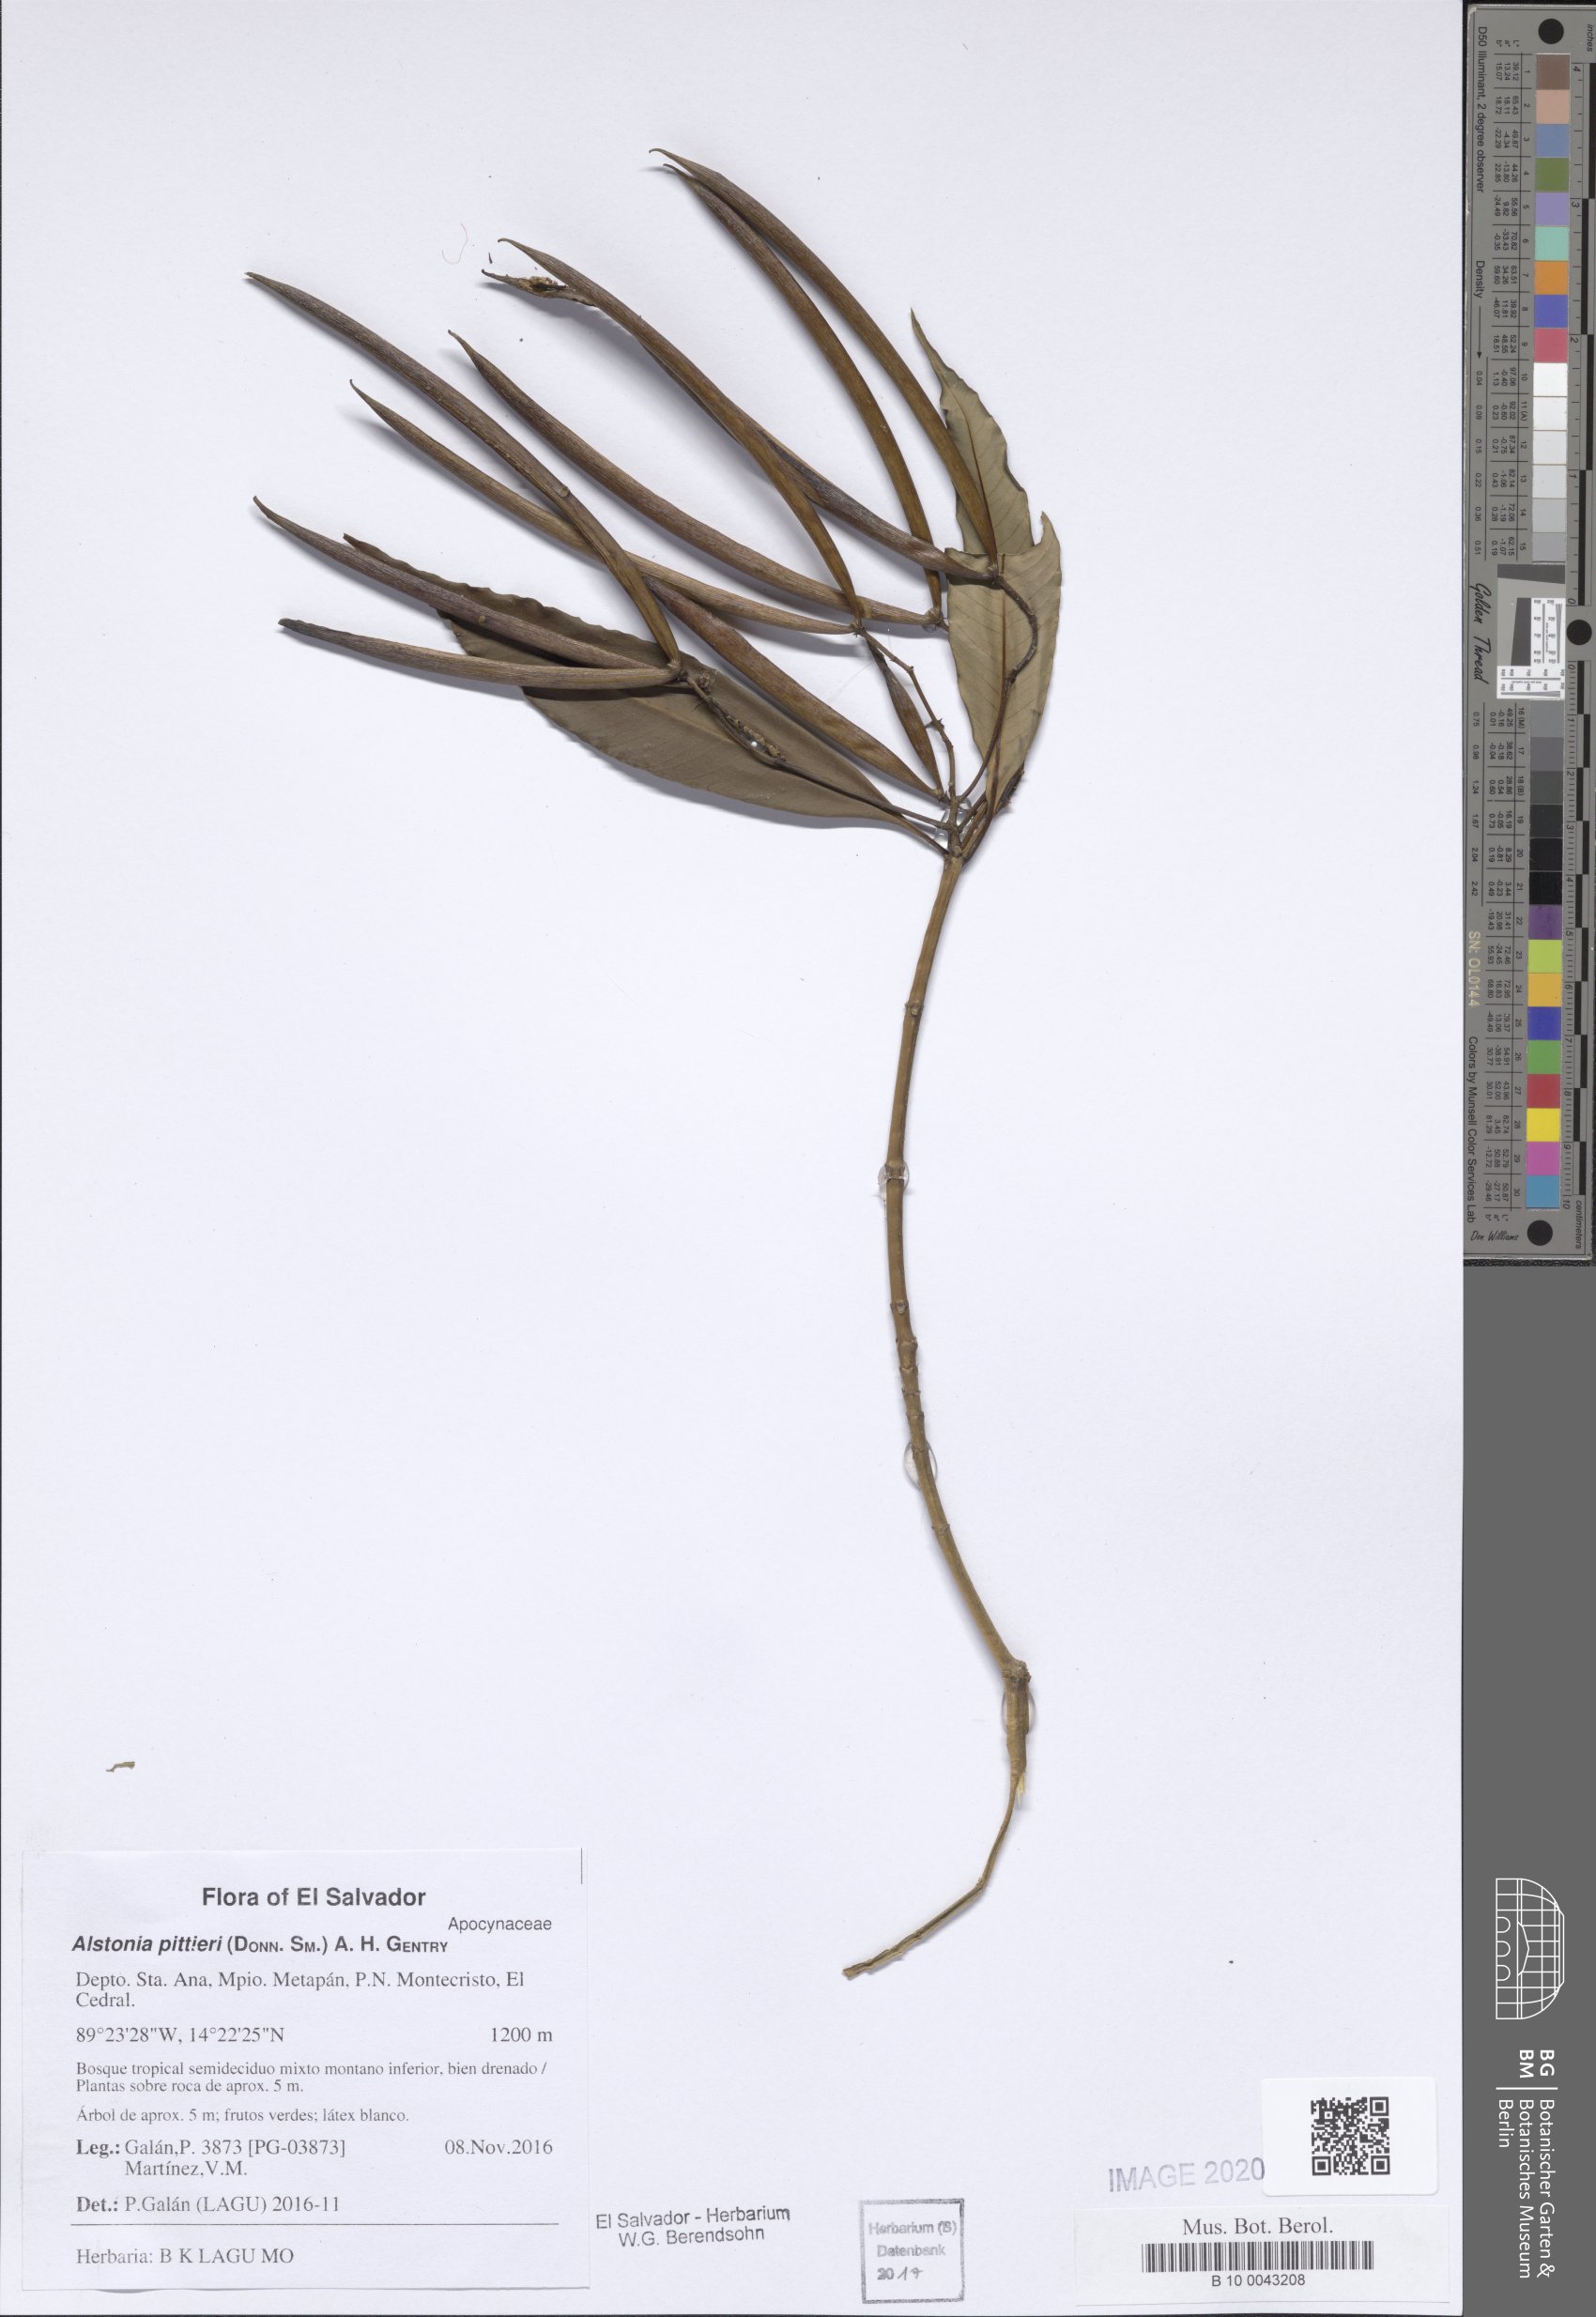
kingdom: Plantae
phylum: Tracheophyta
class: Magnoliopsida
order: Gentianales
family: Apocynaceae
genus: Tonduzia
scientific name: Tonduzia longifolia
